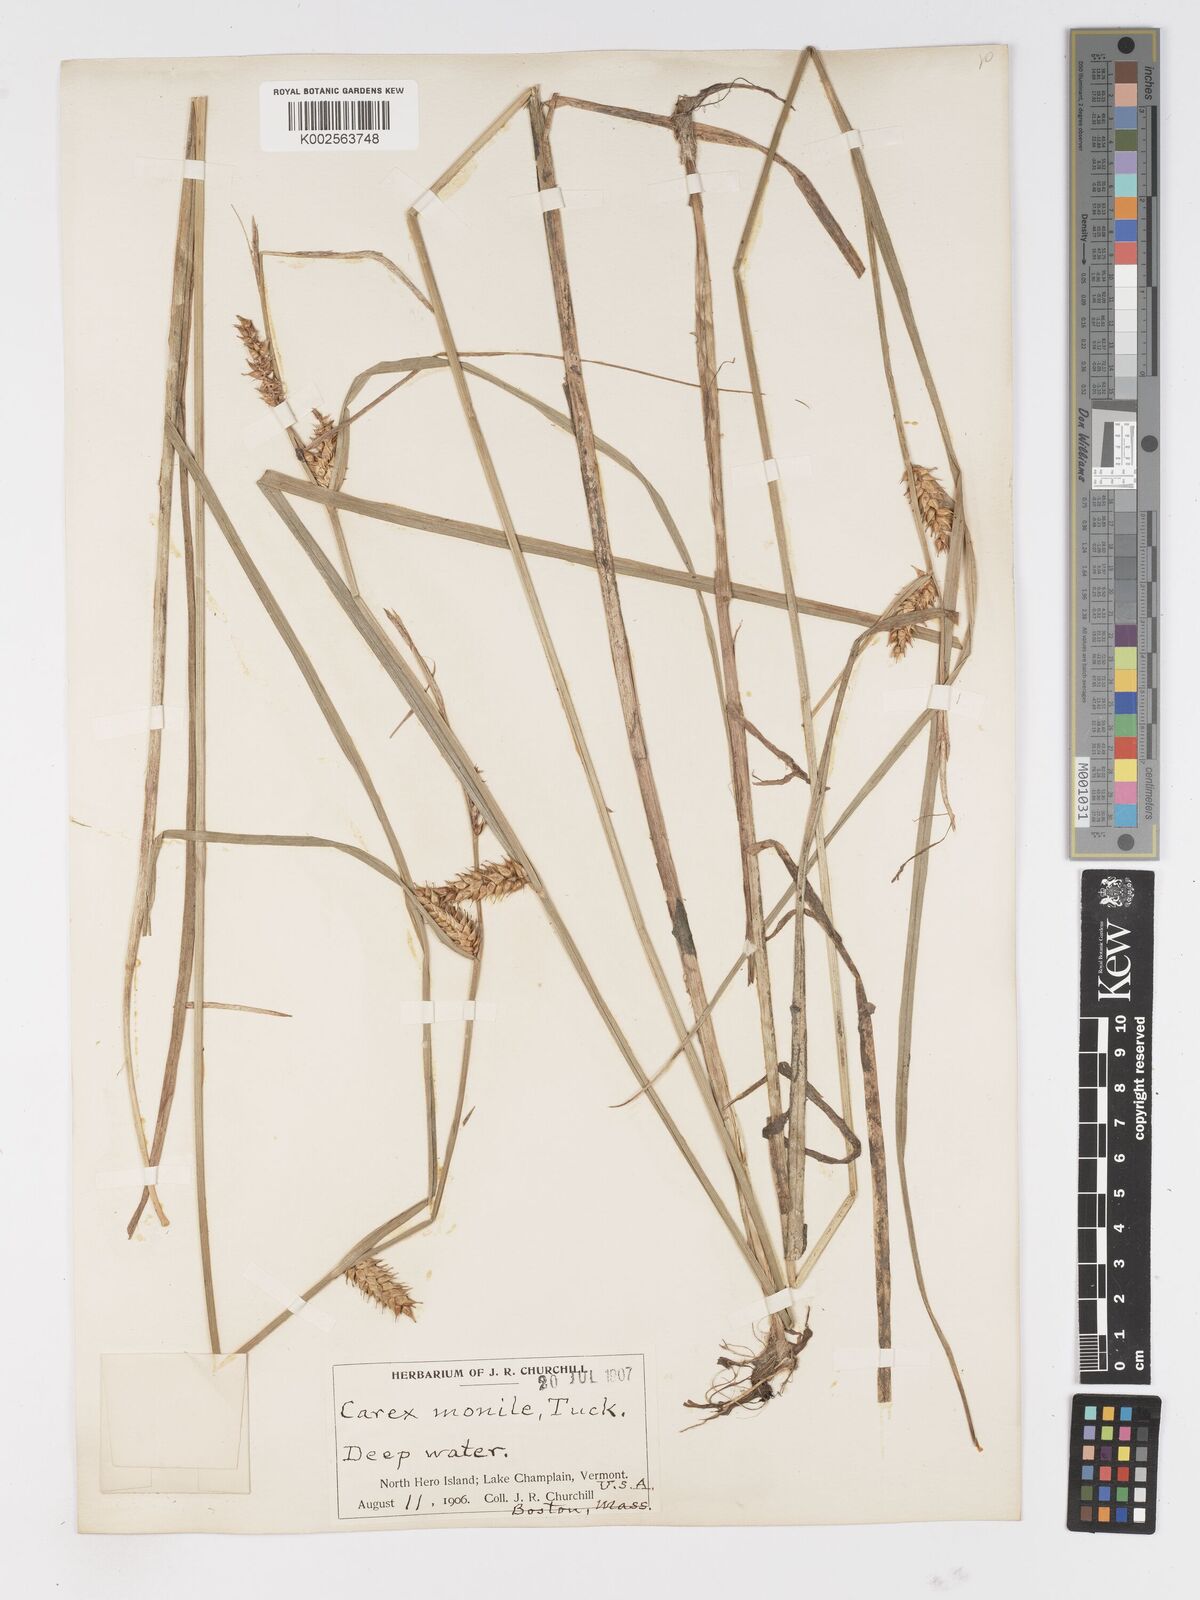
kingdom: Plantae
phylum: Tracheophyta
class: Liliopsida
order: Poales
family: Cyperaceae
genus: Carex
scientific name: Carex vesicaria
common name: Bladder-sedge
